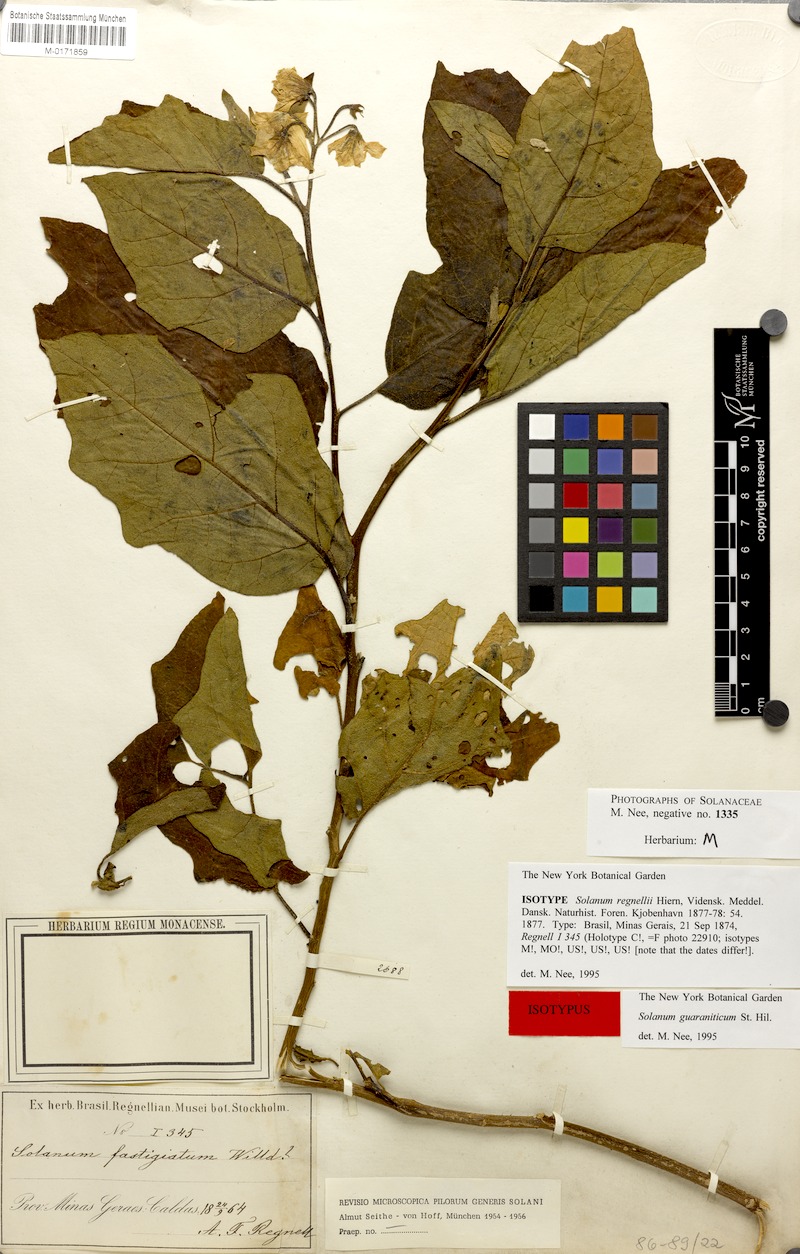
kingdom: Plantae
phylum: Tracheophyta
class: Magnoliopsida
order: Solanales
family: Solanaceae
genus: Solanum
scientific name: Solanum guaraniticum
